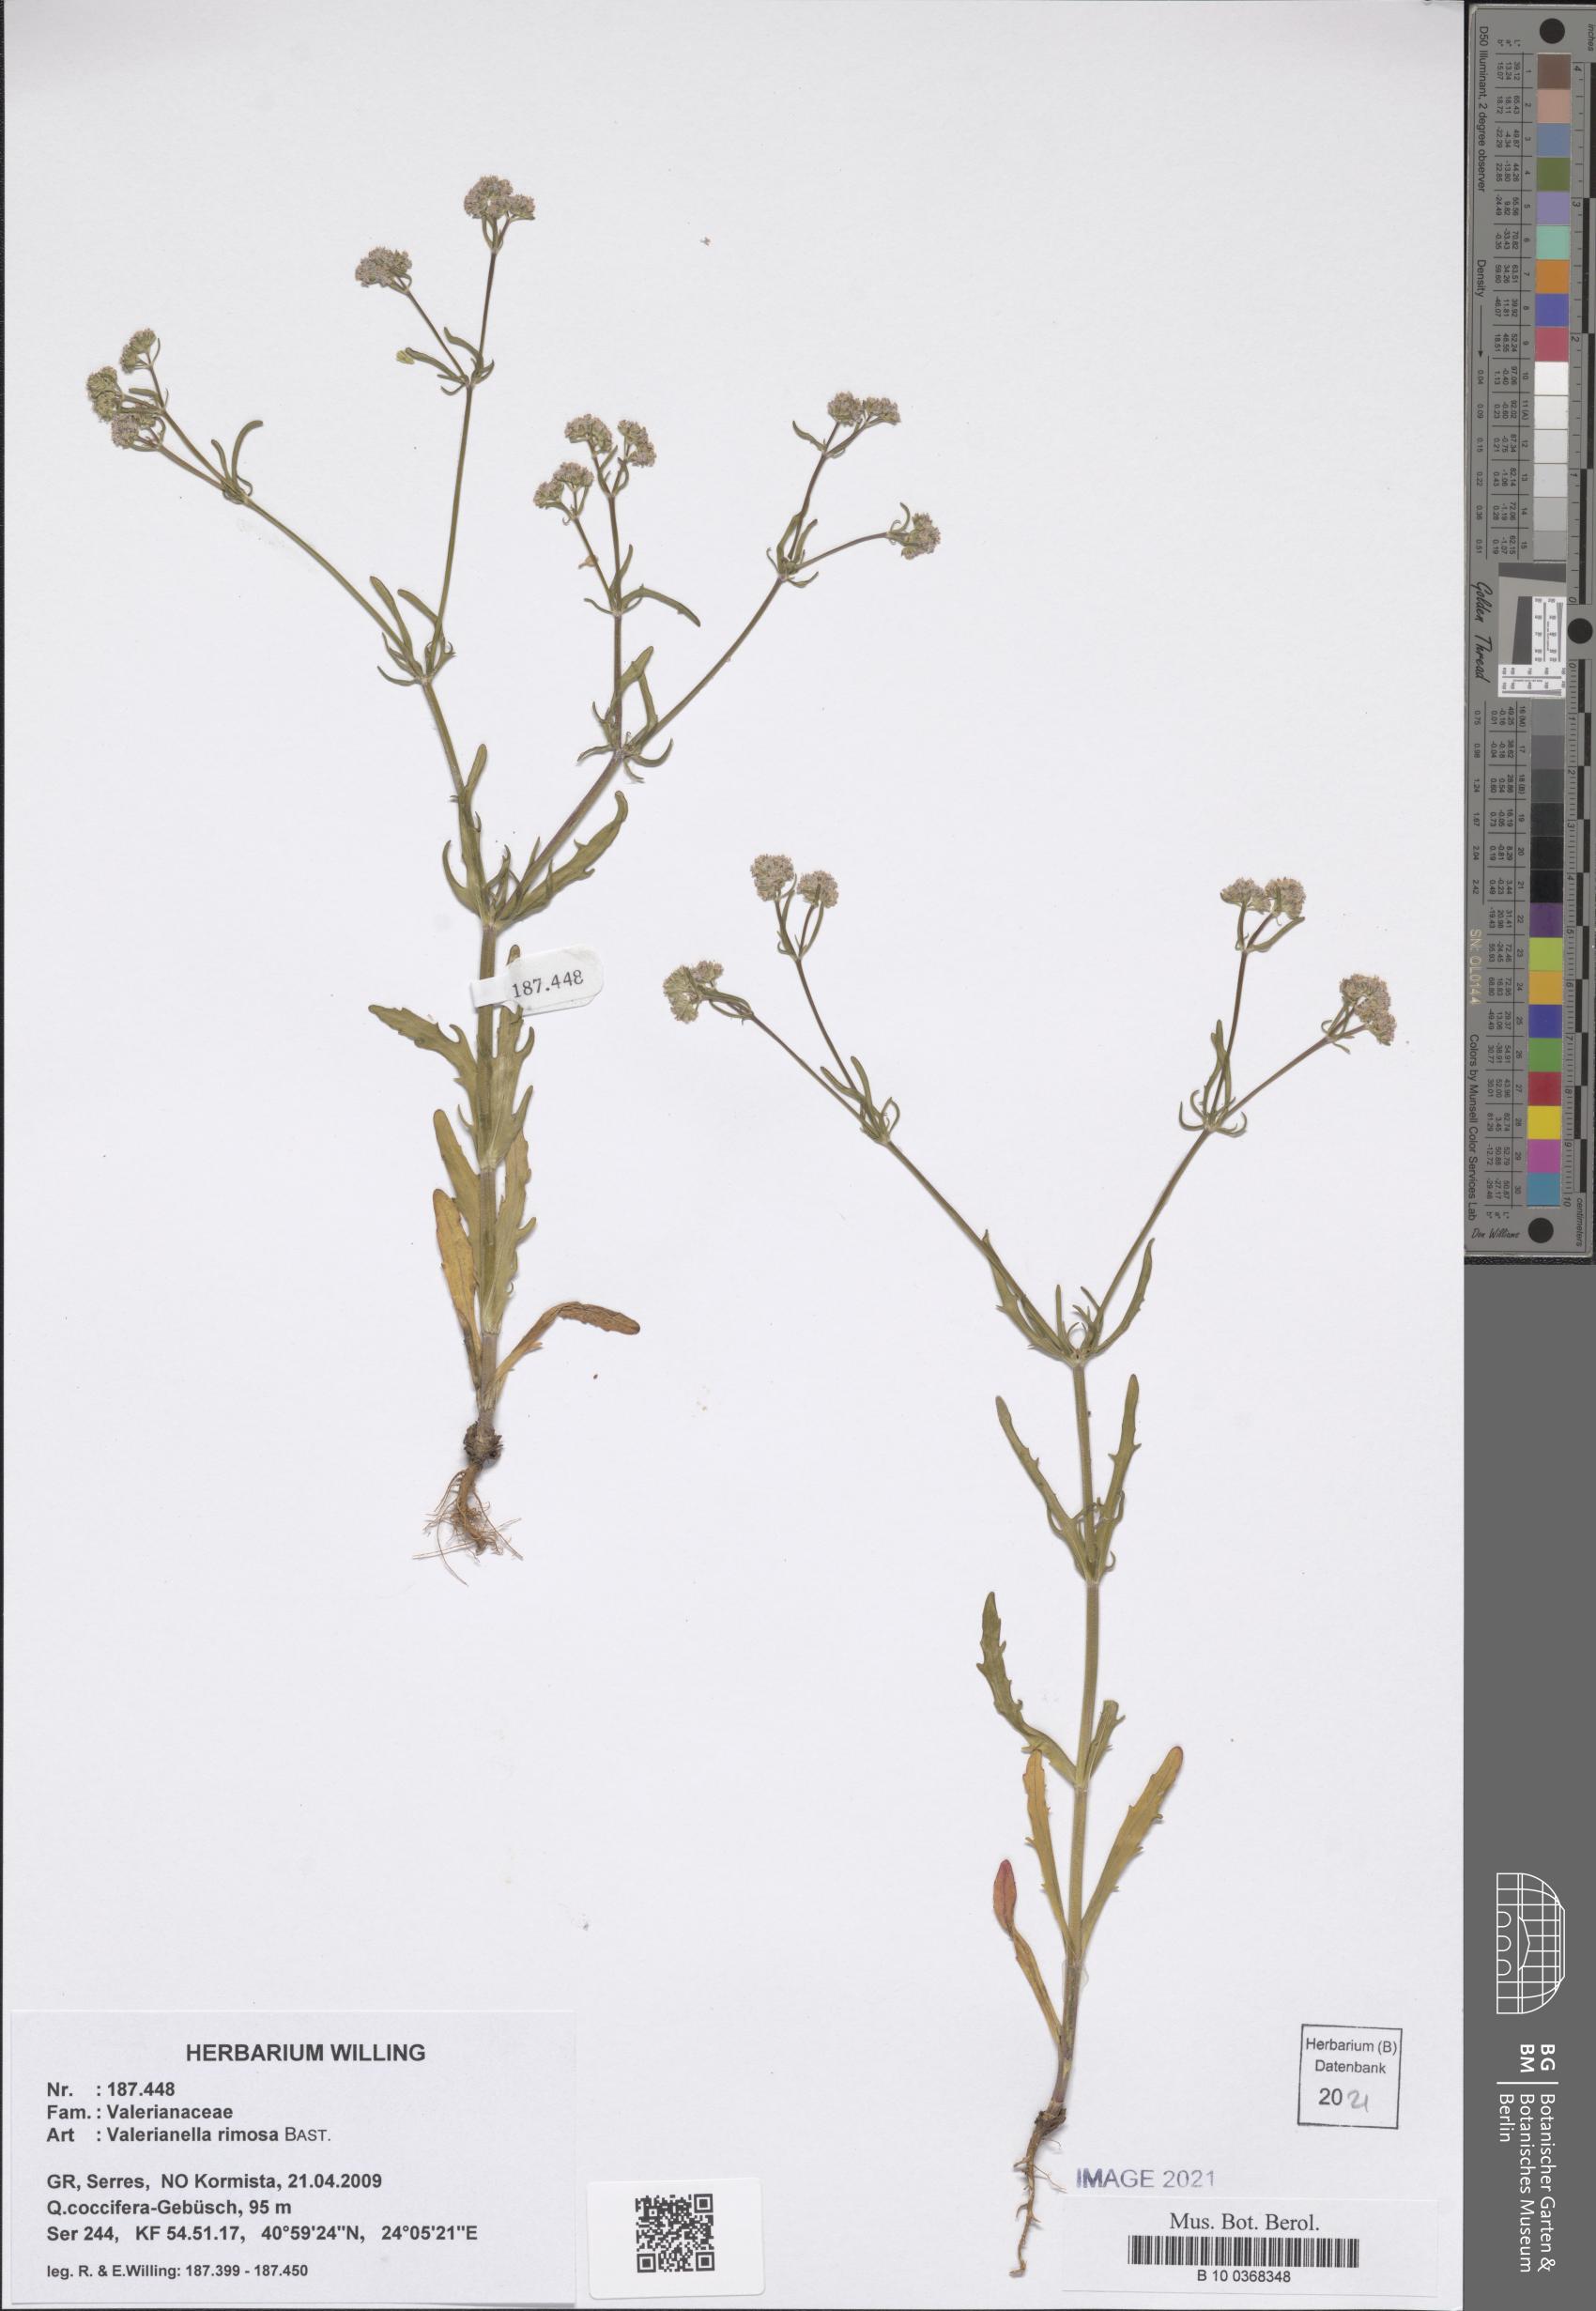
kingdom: Plantae
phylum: Tracheophyta
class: Magnoliopsida
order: Dipsacales
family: Caprifoliaceae
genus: Valerianella
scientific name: Valerianella rimosa
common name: Broad-fruited cornsalad
